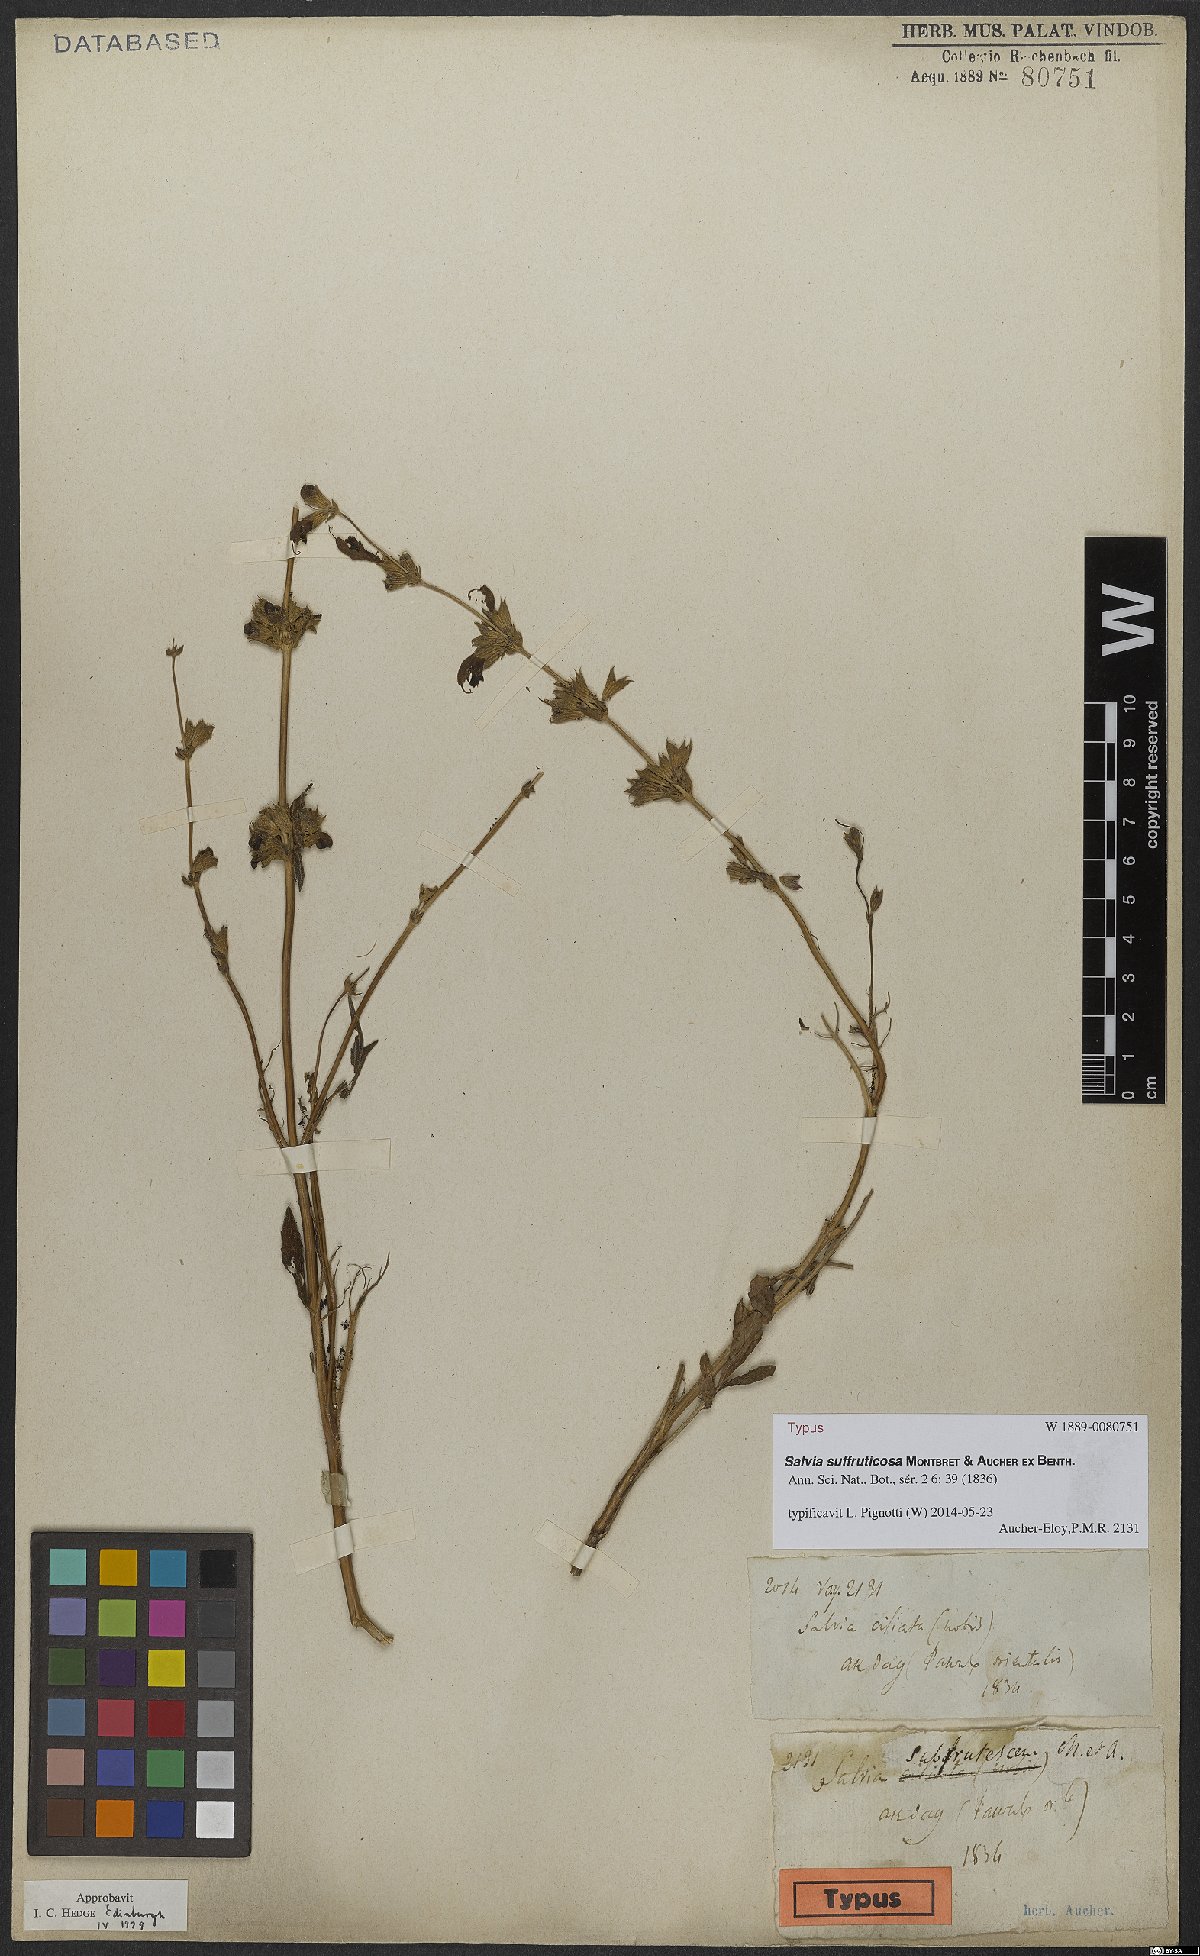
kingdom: Plantae
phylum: Tracheophyta
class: Magnoliopsida
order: Lamiales
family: Lamiaceae
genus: Salvia
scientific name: Salvia suffruticosa
